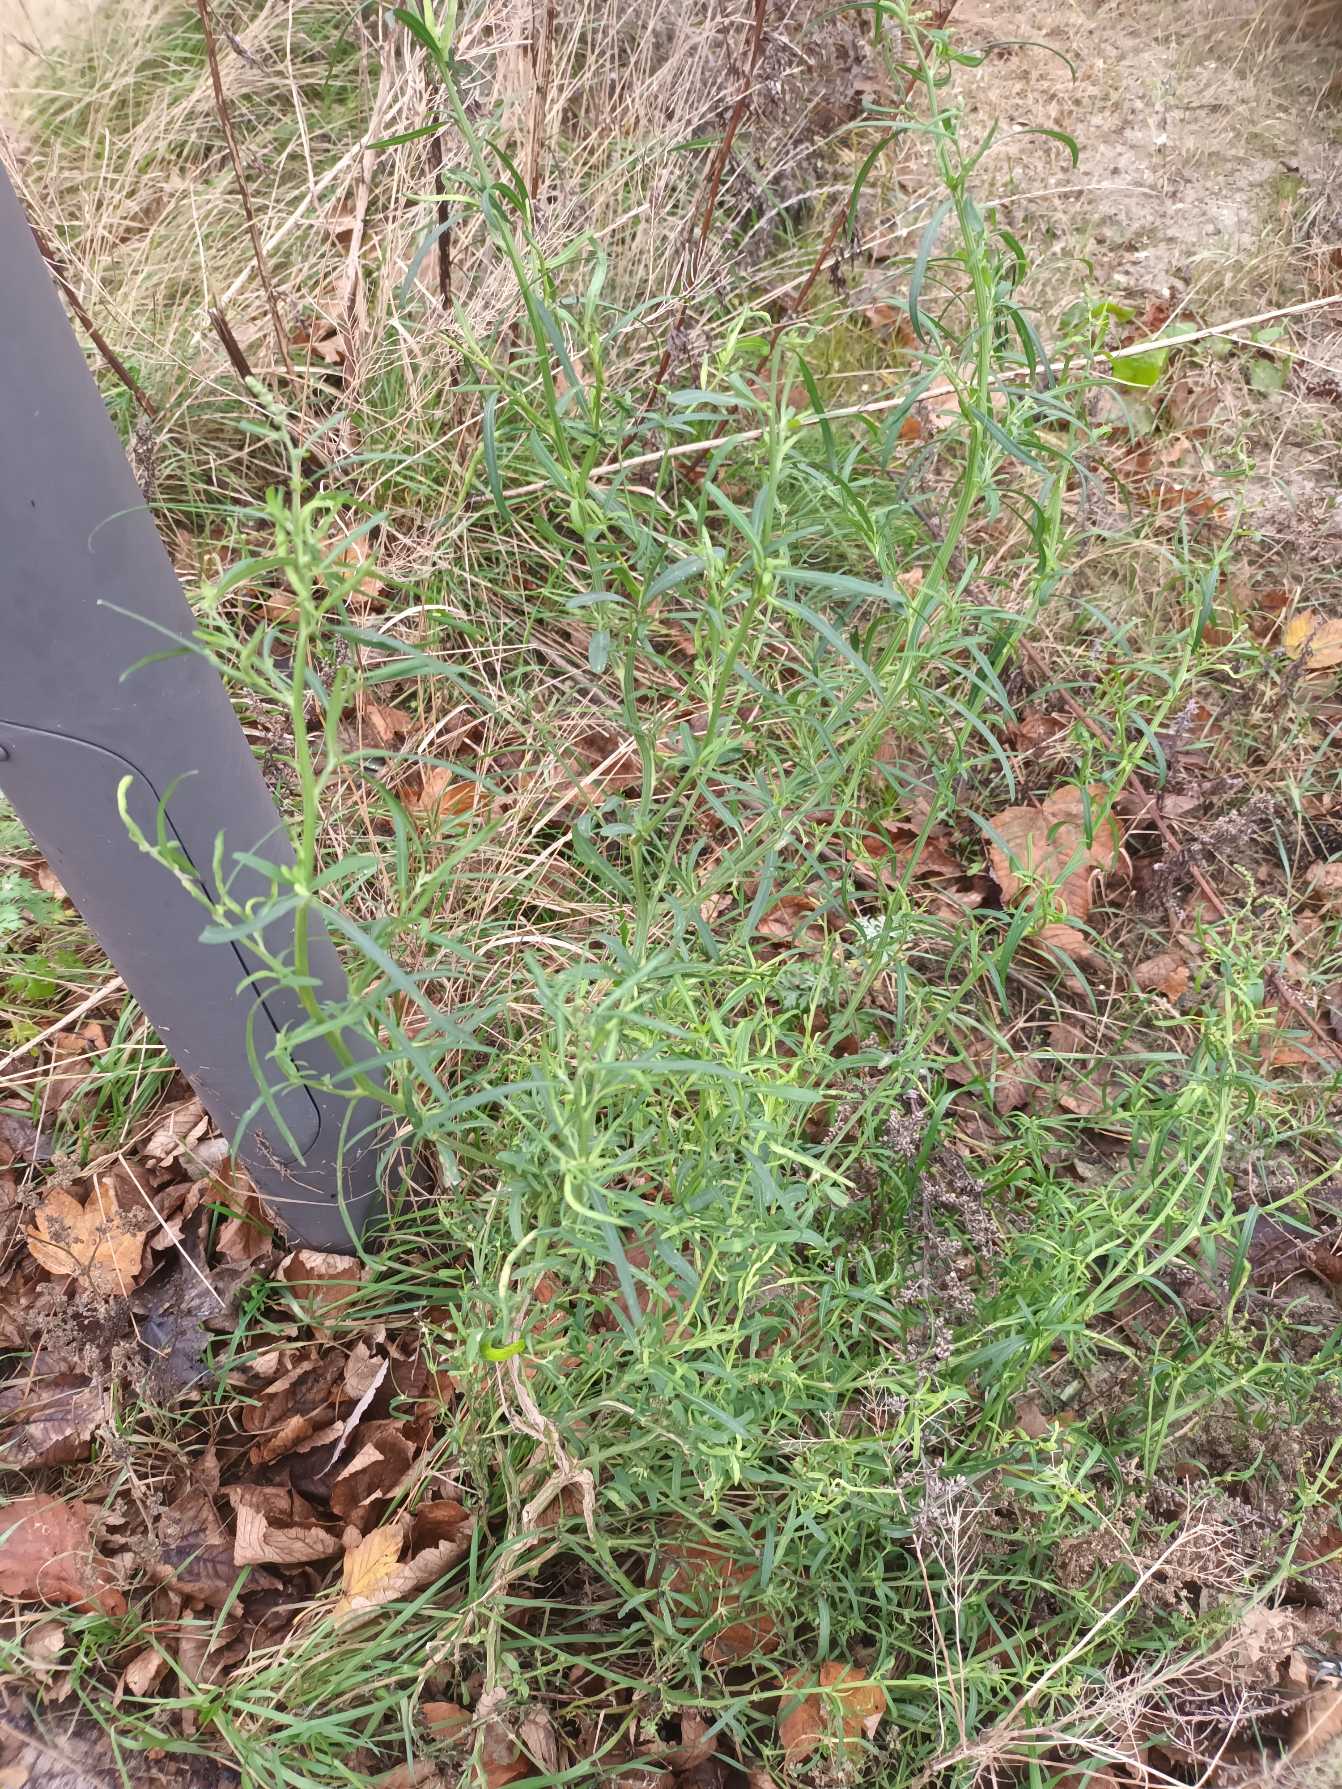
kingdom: Plantae
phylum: Tracheophyta
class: Magnoliopsida
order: Caryophyllales
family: Amaranthaceae
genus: Atriplex
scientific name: Atriplex littoralis
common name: Strand-mælde
